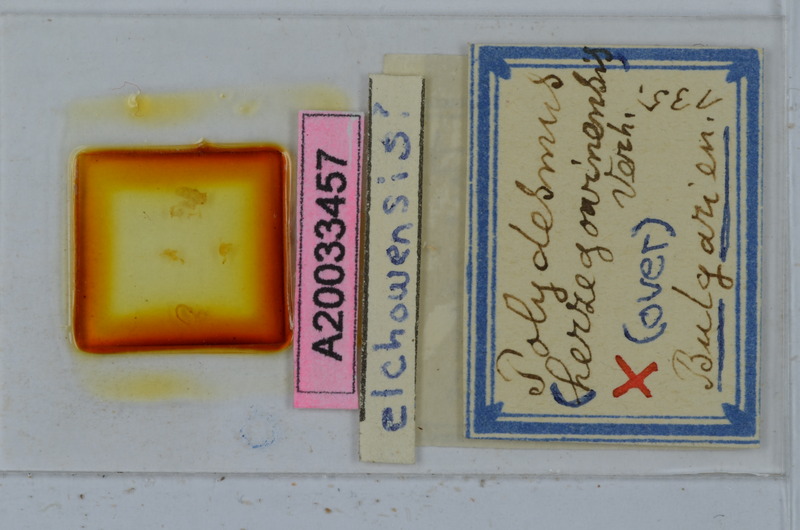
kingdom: Animalia
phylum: Arthropoda
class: Diplopoda
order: Polydesmida
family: Polydesmidae
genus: Polydesmus
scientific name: Polydesmus elchowensis
